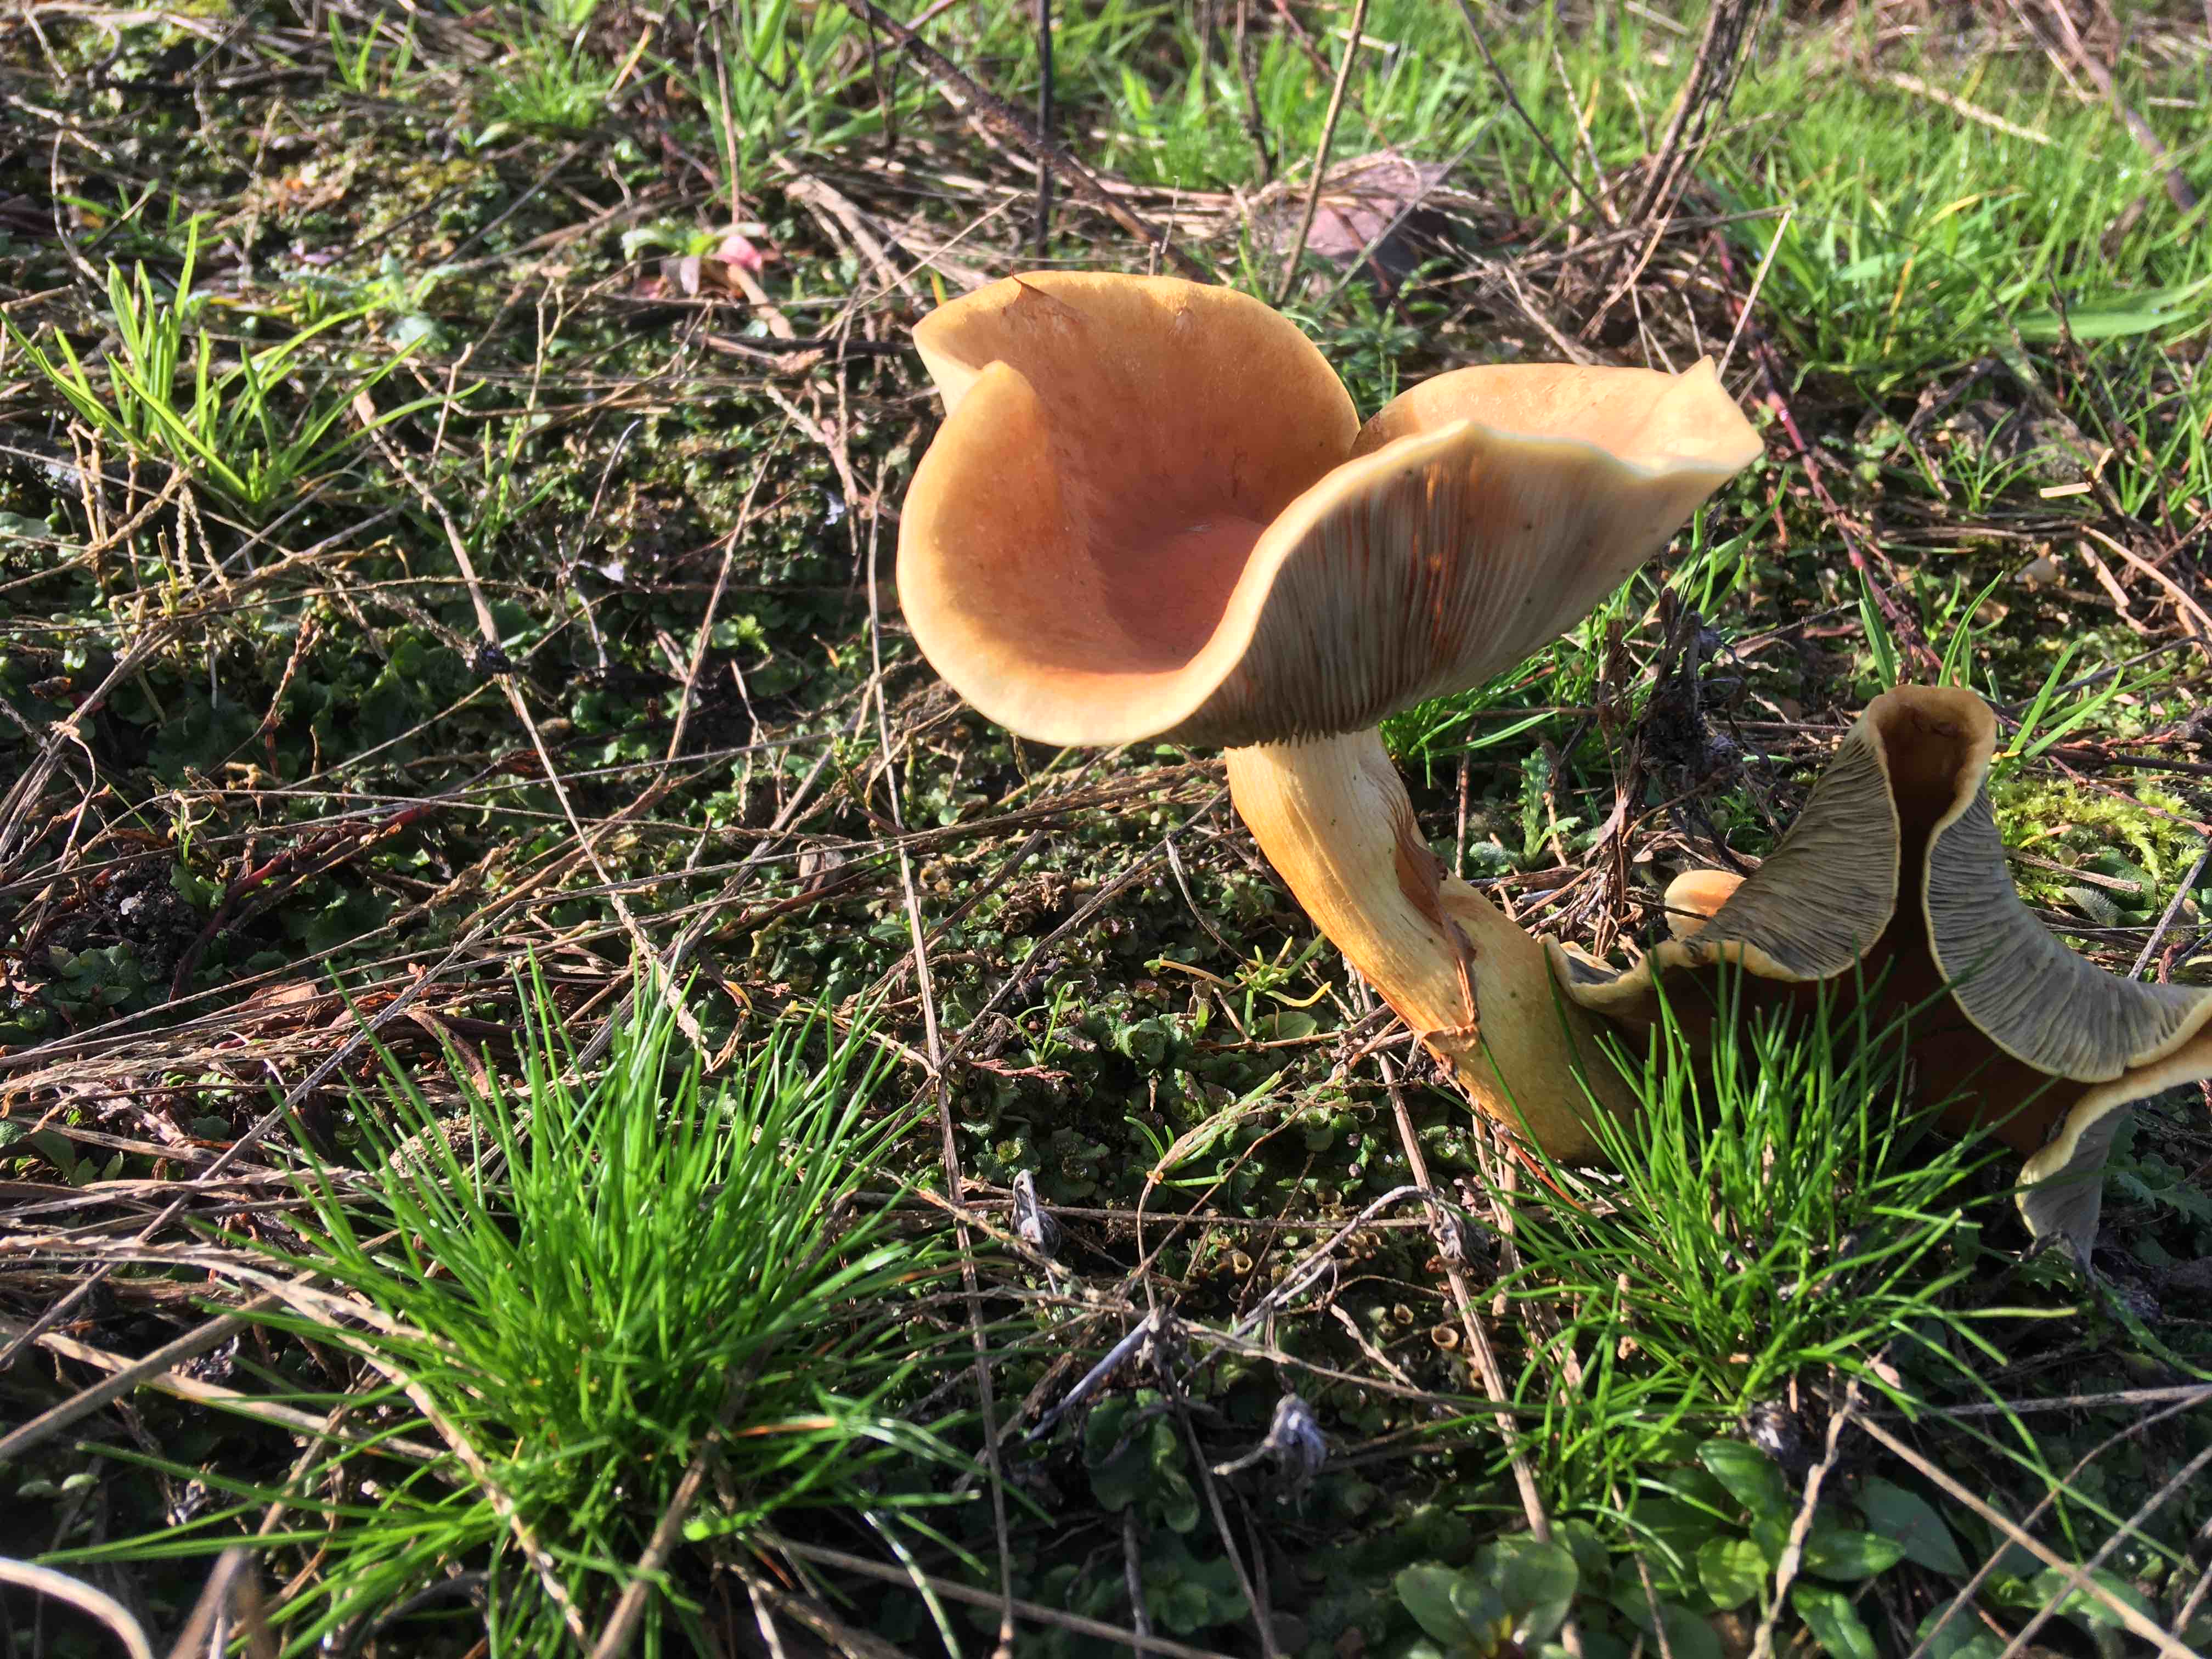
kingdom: Fungi
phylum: Basidiomycota
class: Agaricomycetes
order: Agaricales
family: Strophariaceae
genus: Hypholoma
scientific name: Hypholoma lateritium
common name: teglrød svovlhat
